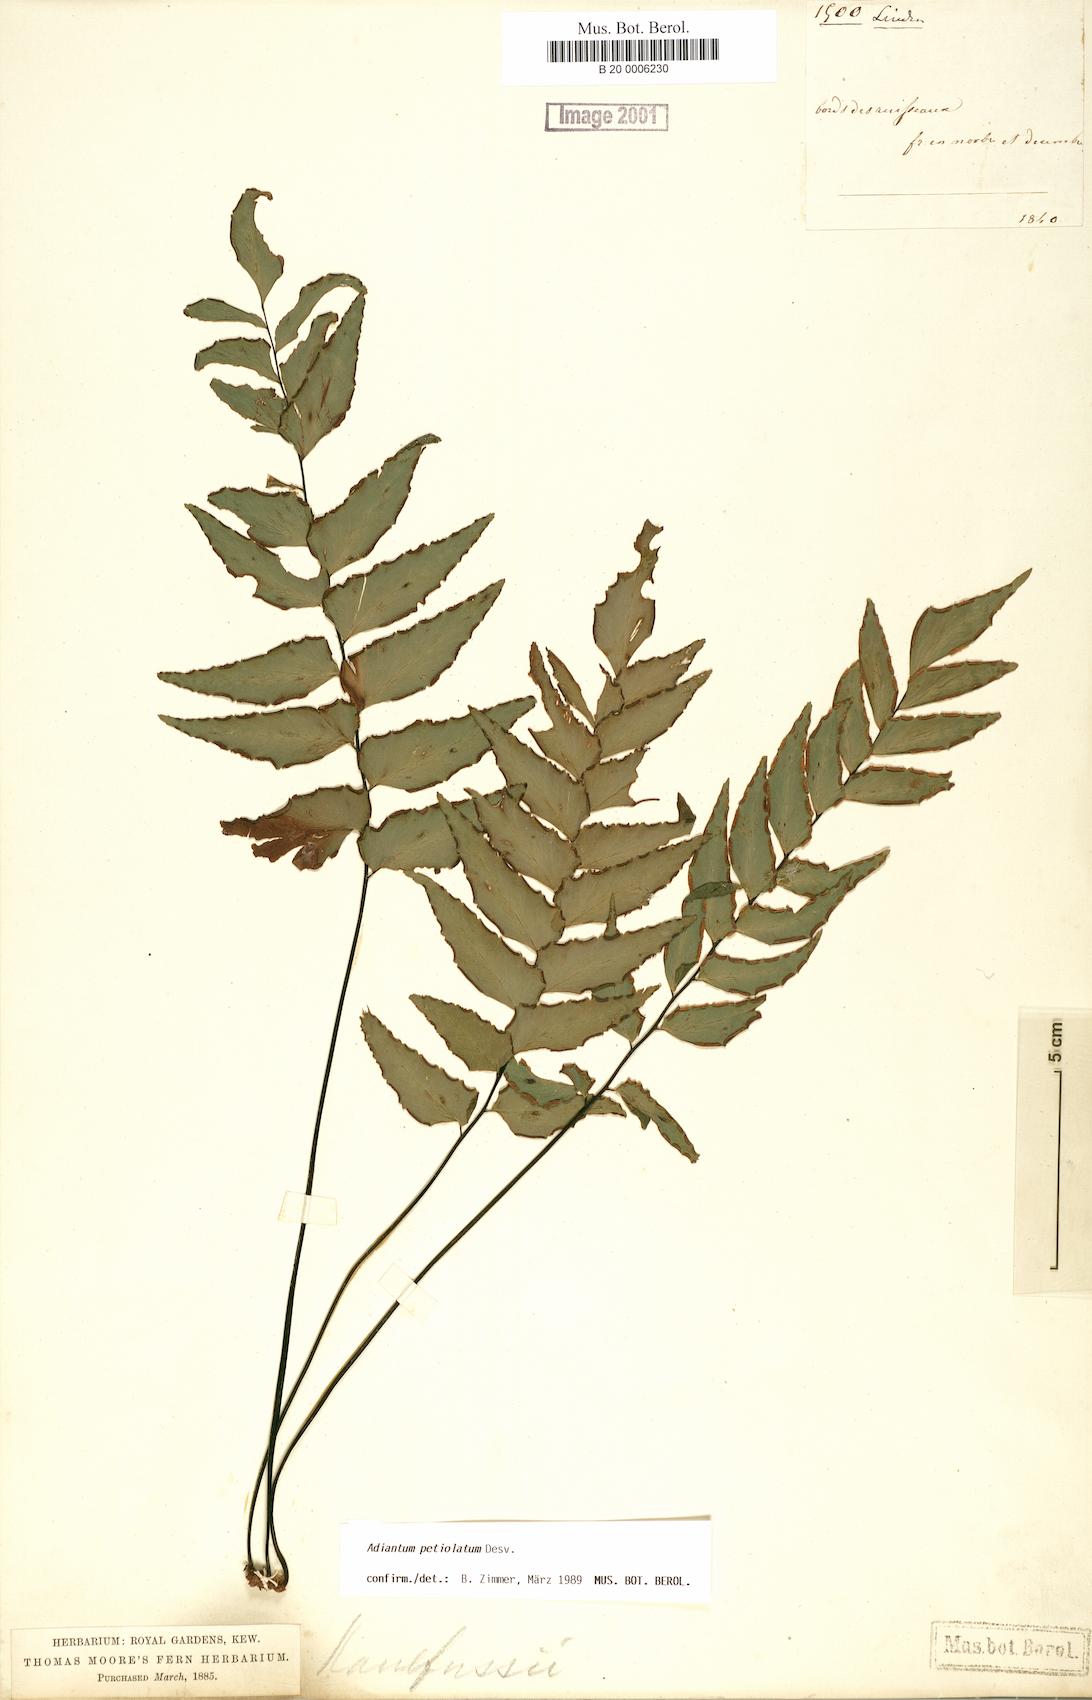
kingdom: Plantae
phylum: Tracheophyta
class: Polypodiopsida
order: Polypodiales
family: Pteridaceae
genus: Adiantum
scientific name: Adiantum petiolatum
